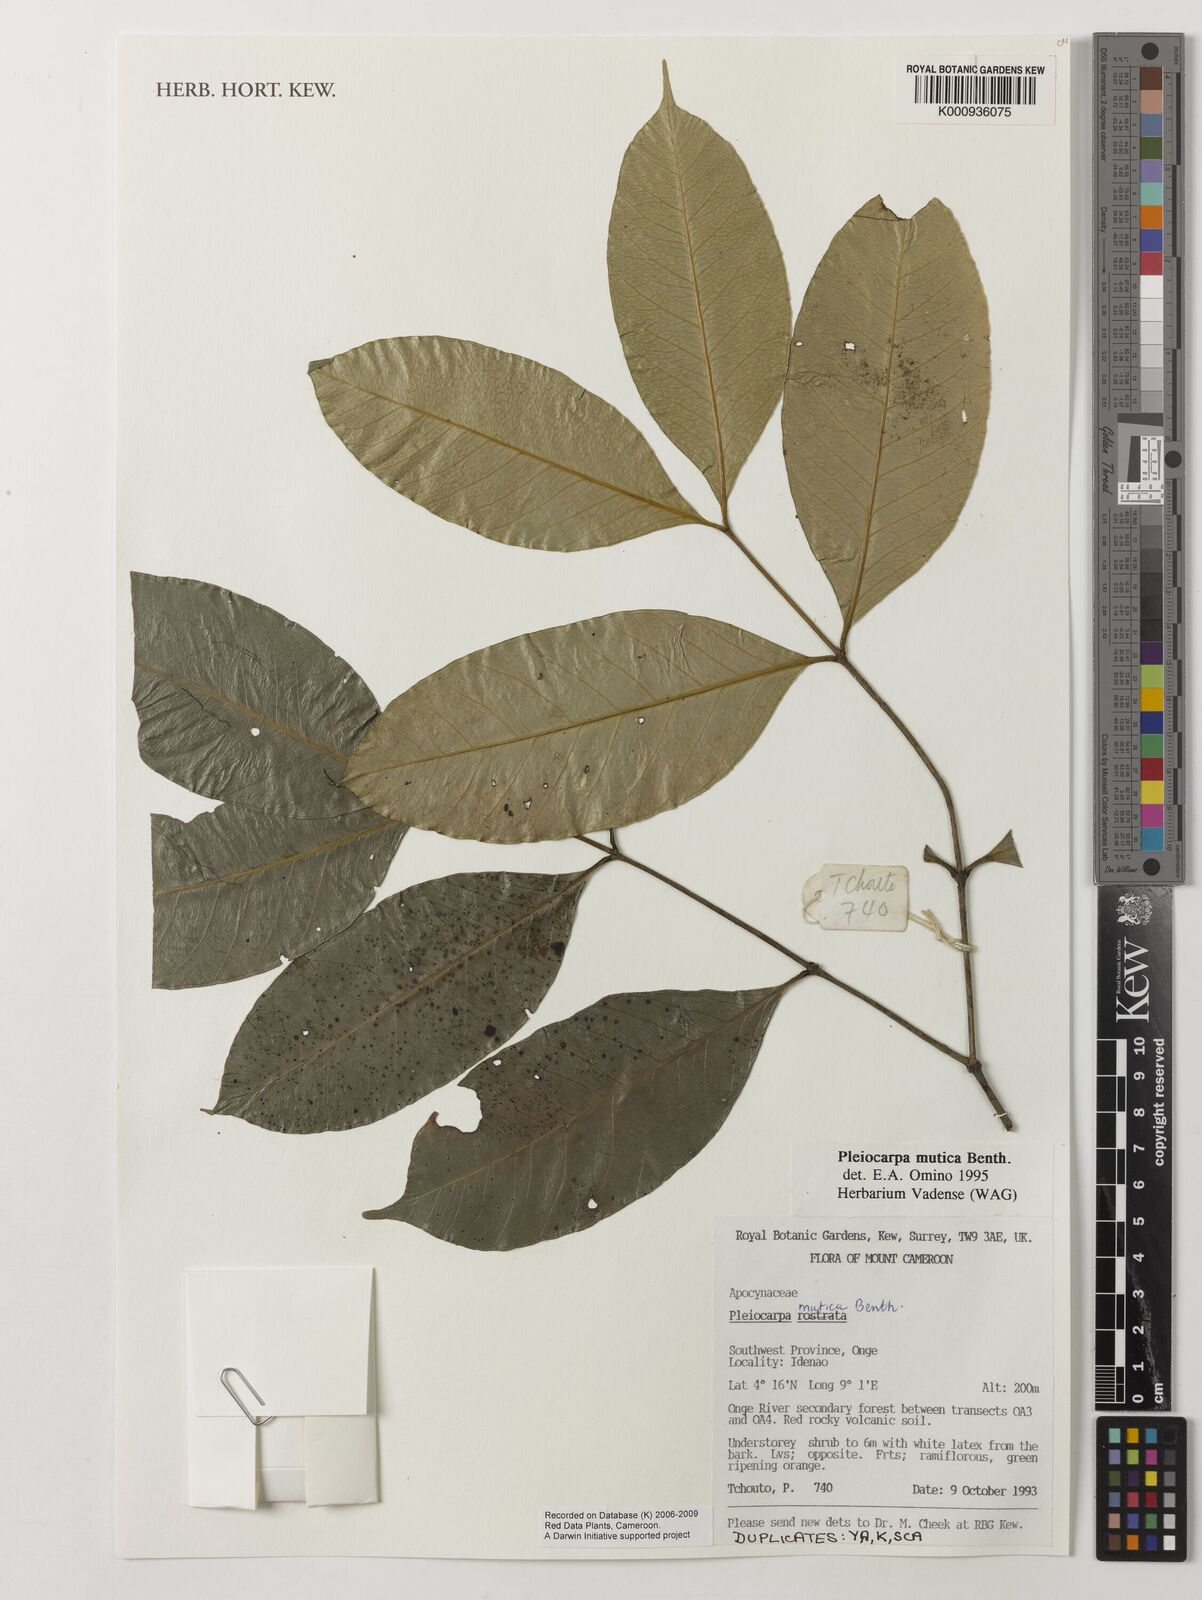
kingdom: Plantae
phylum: Tracheophyta
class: Magnoliopsida
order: Gentianales
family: Apocynaceae
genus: Pleiocarpa
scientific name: Pleiocarpa mutica
